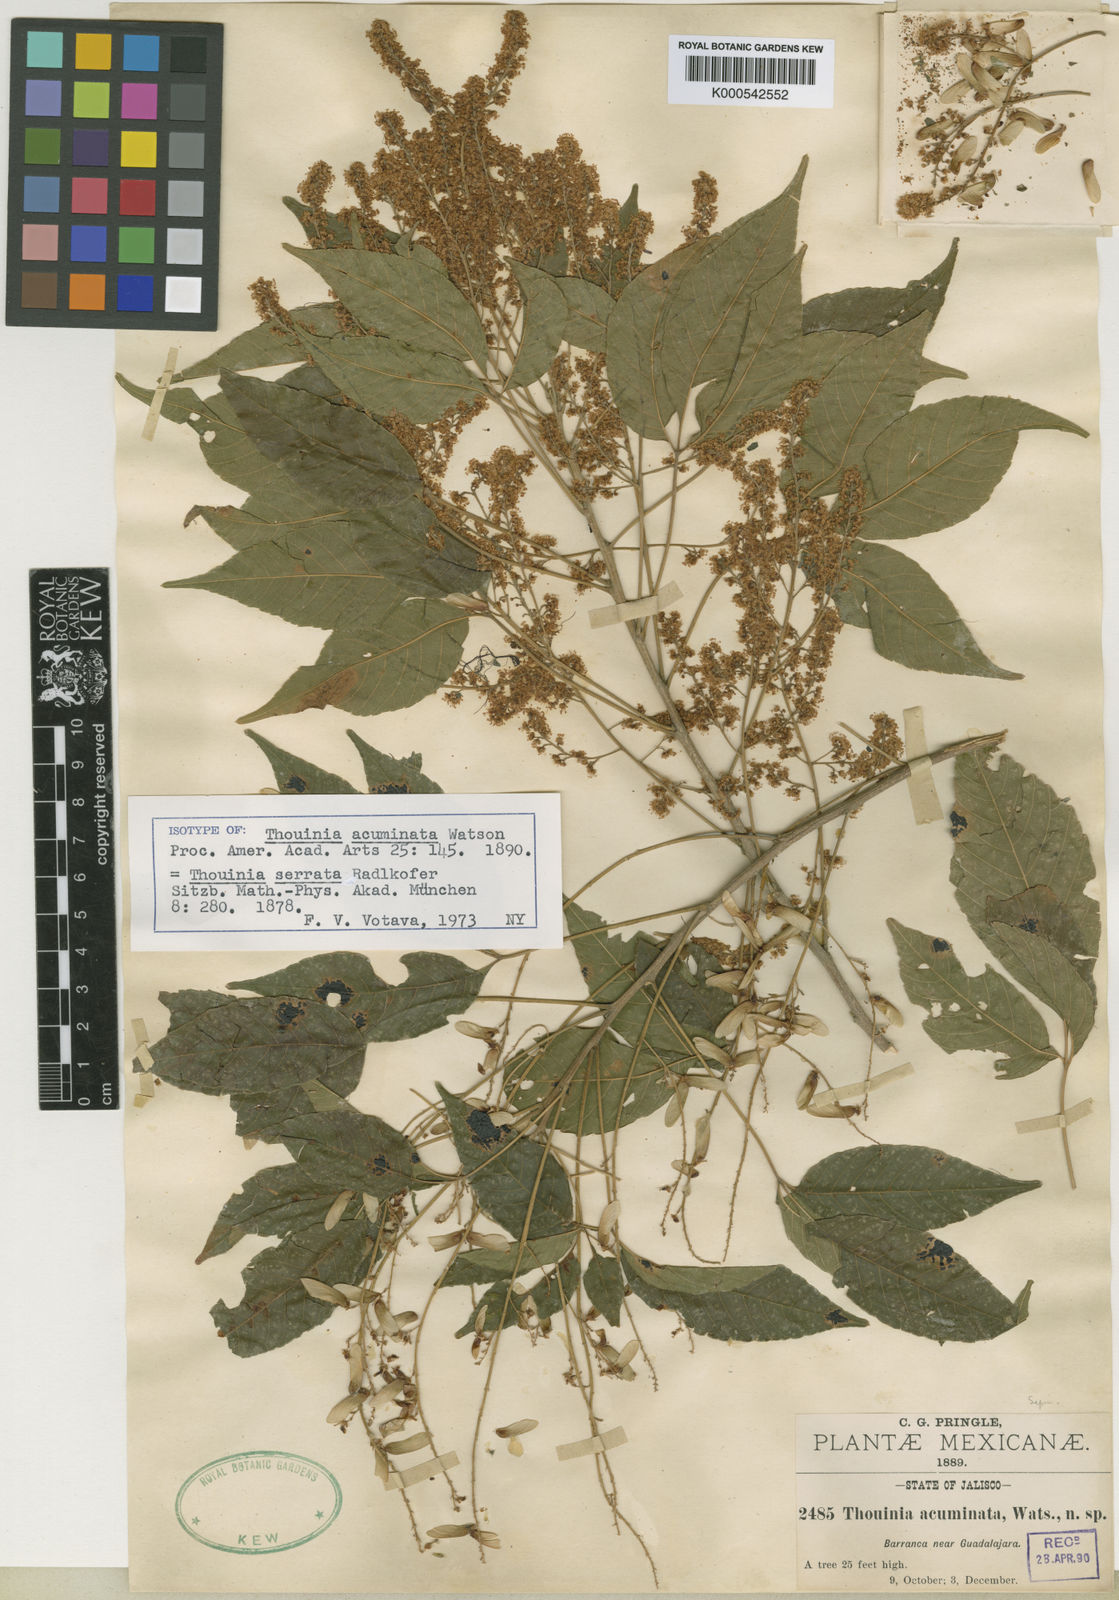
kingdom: Plantae
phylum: Tracheophyta
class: Magnoliopsida
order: Sapindales
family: Sapindaceae
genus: Thouinia
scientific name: Thouinia serrata
